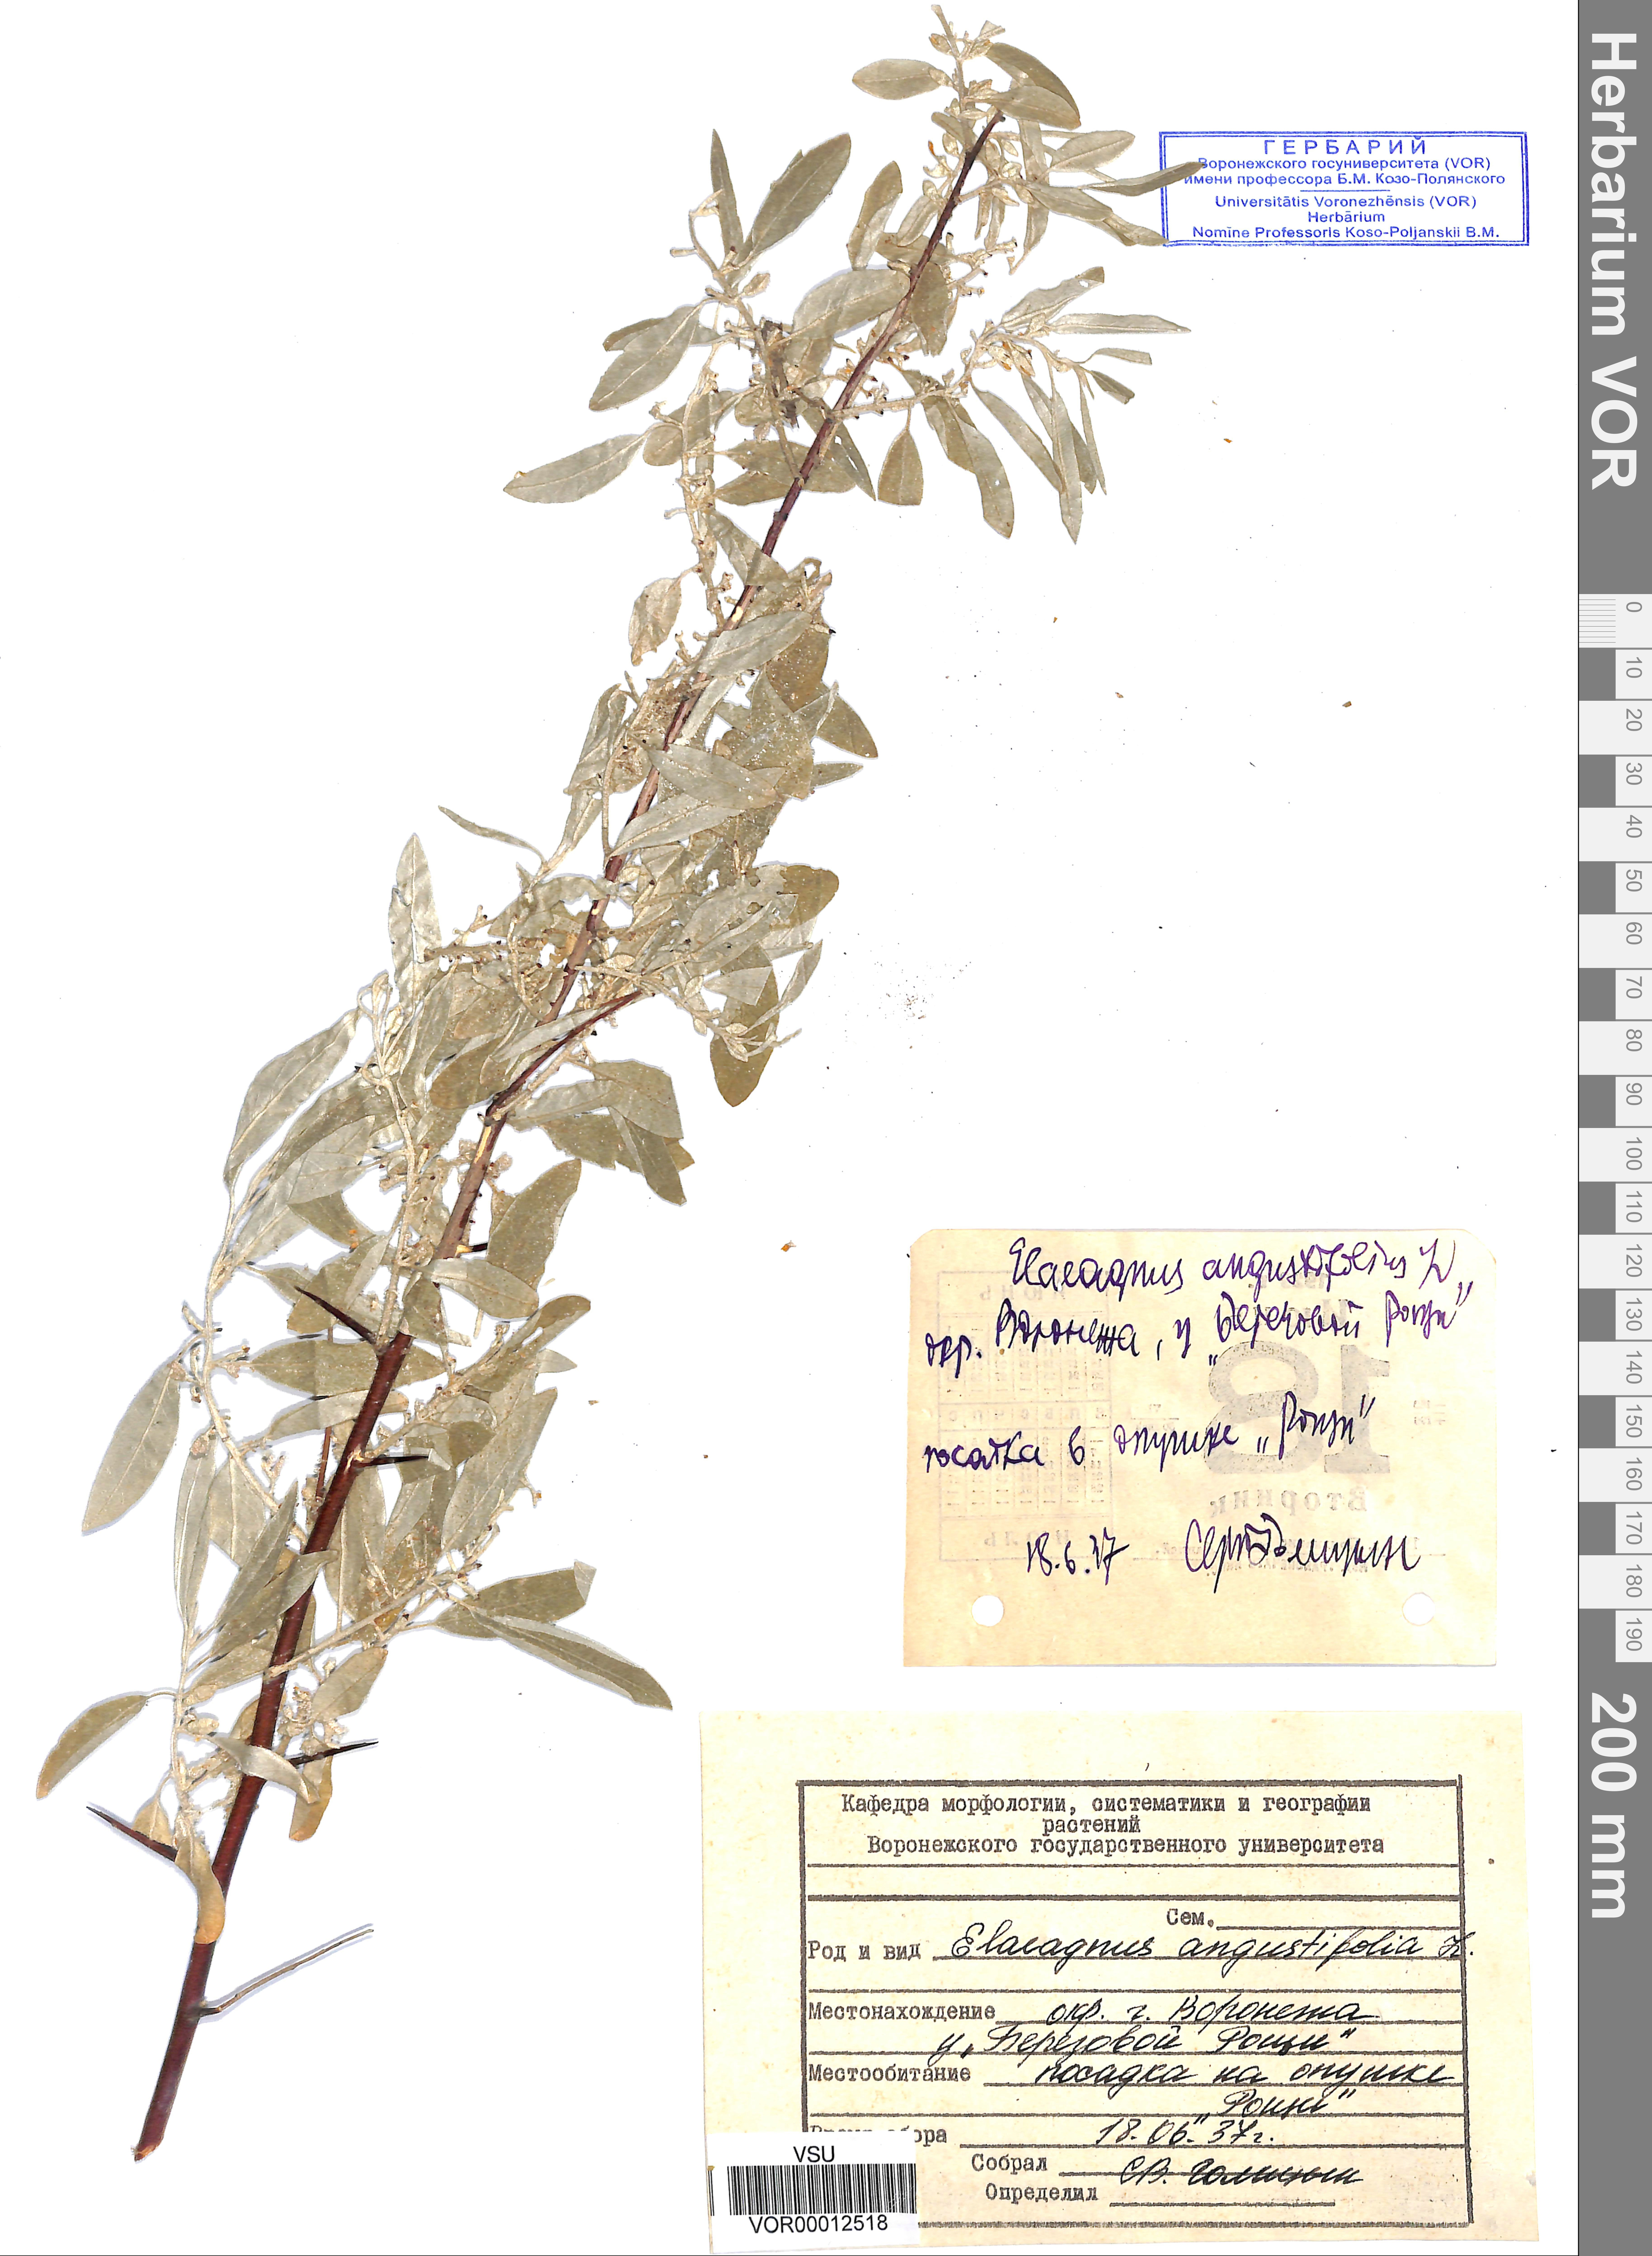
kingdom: Plantae
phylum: Tracheophyta
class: Magnoliopsida
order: Rosales
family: Elaeagnaceae
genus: Elaeagnus
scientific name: Elaeagnus angustifolia
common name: Russian olive
